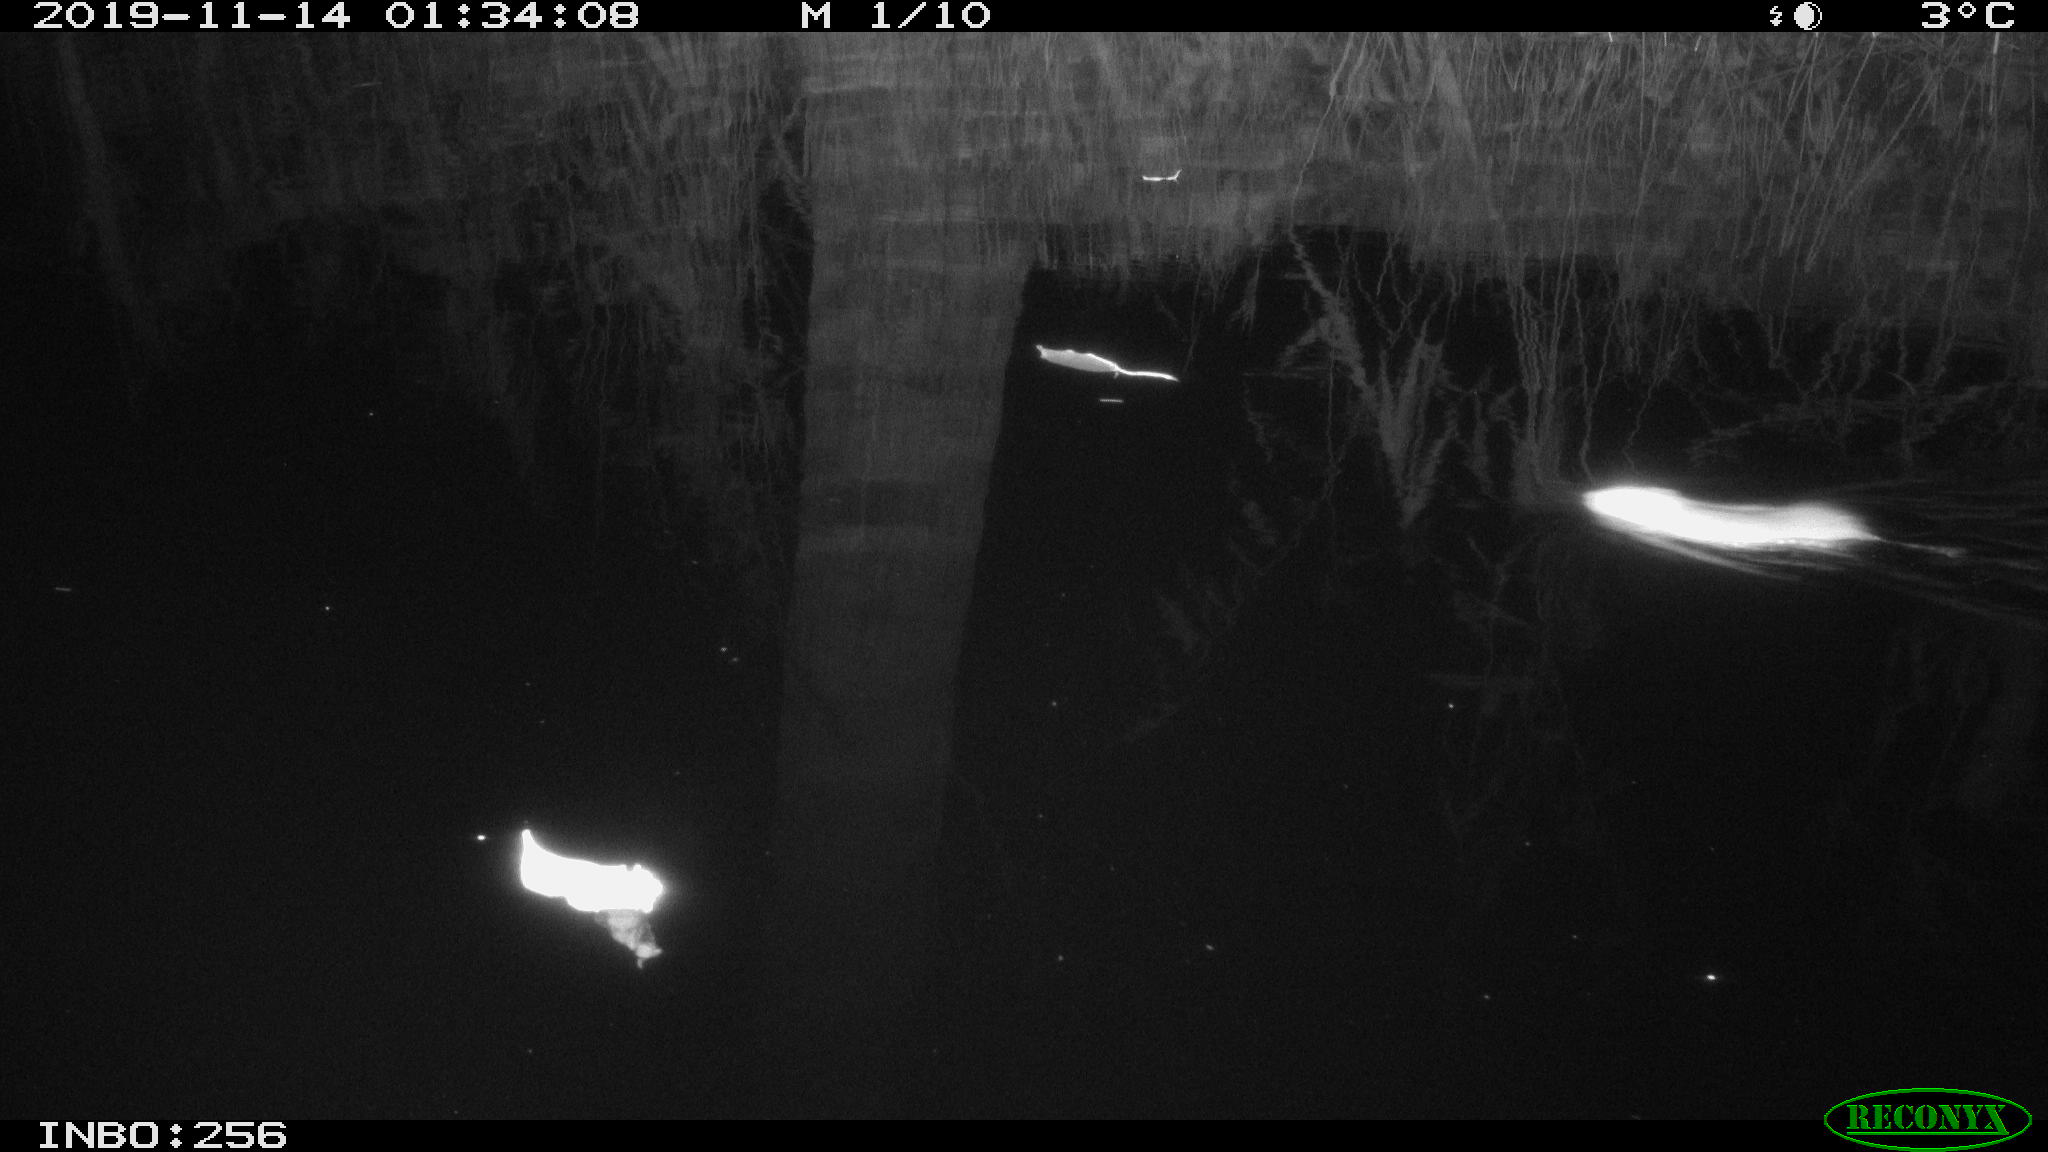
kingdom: Animalia
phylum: Chordata
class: Mammalia
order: Rodentia
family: Muridae
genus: Rattus
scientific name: Rattus norvegicus
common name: Brown rat
